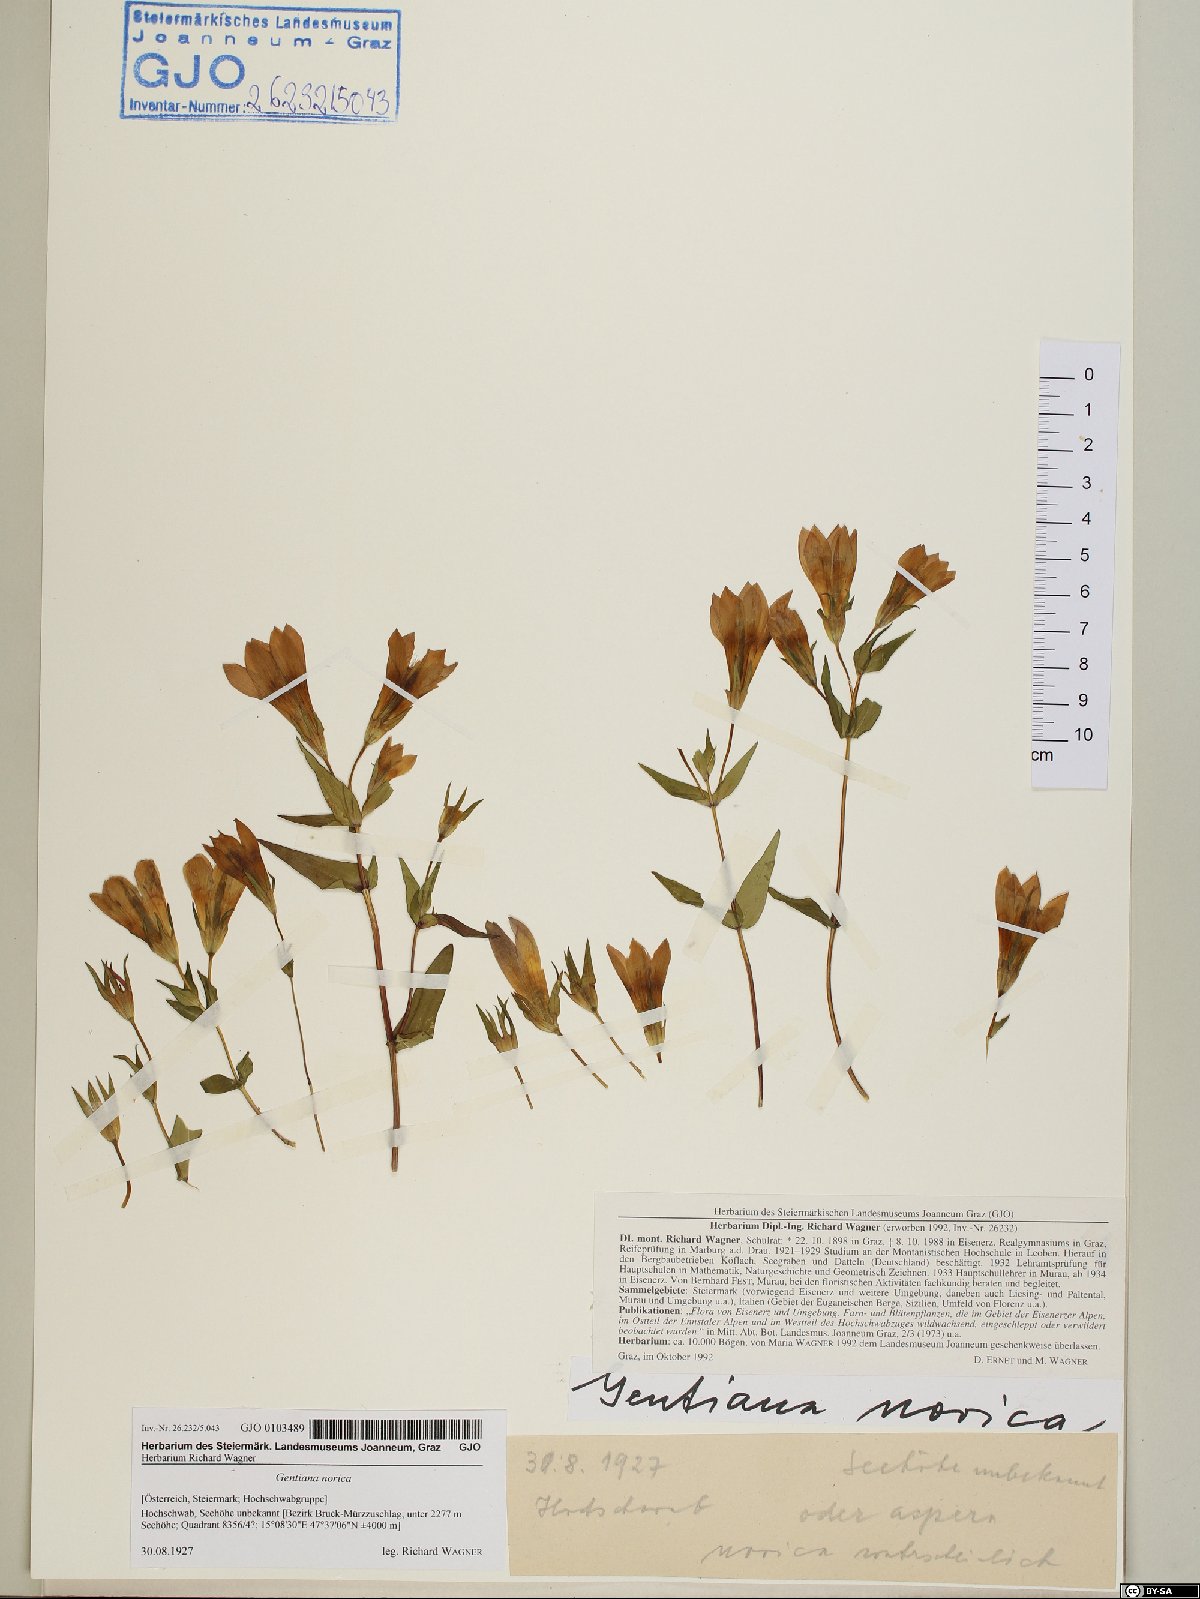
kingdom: Plantae
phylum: Tracheophyta
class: Magnoliopsida
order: Gentianales
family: Gentianaceae
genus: Gentianella
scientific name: Gentianella obtusifolia
